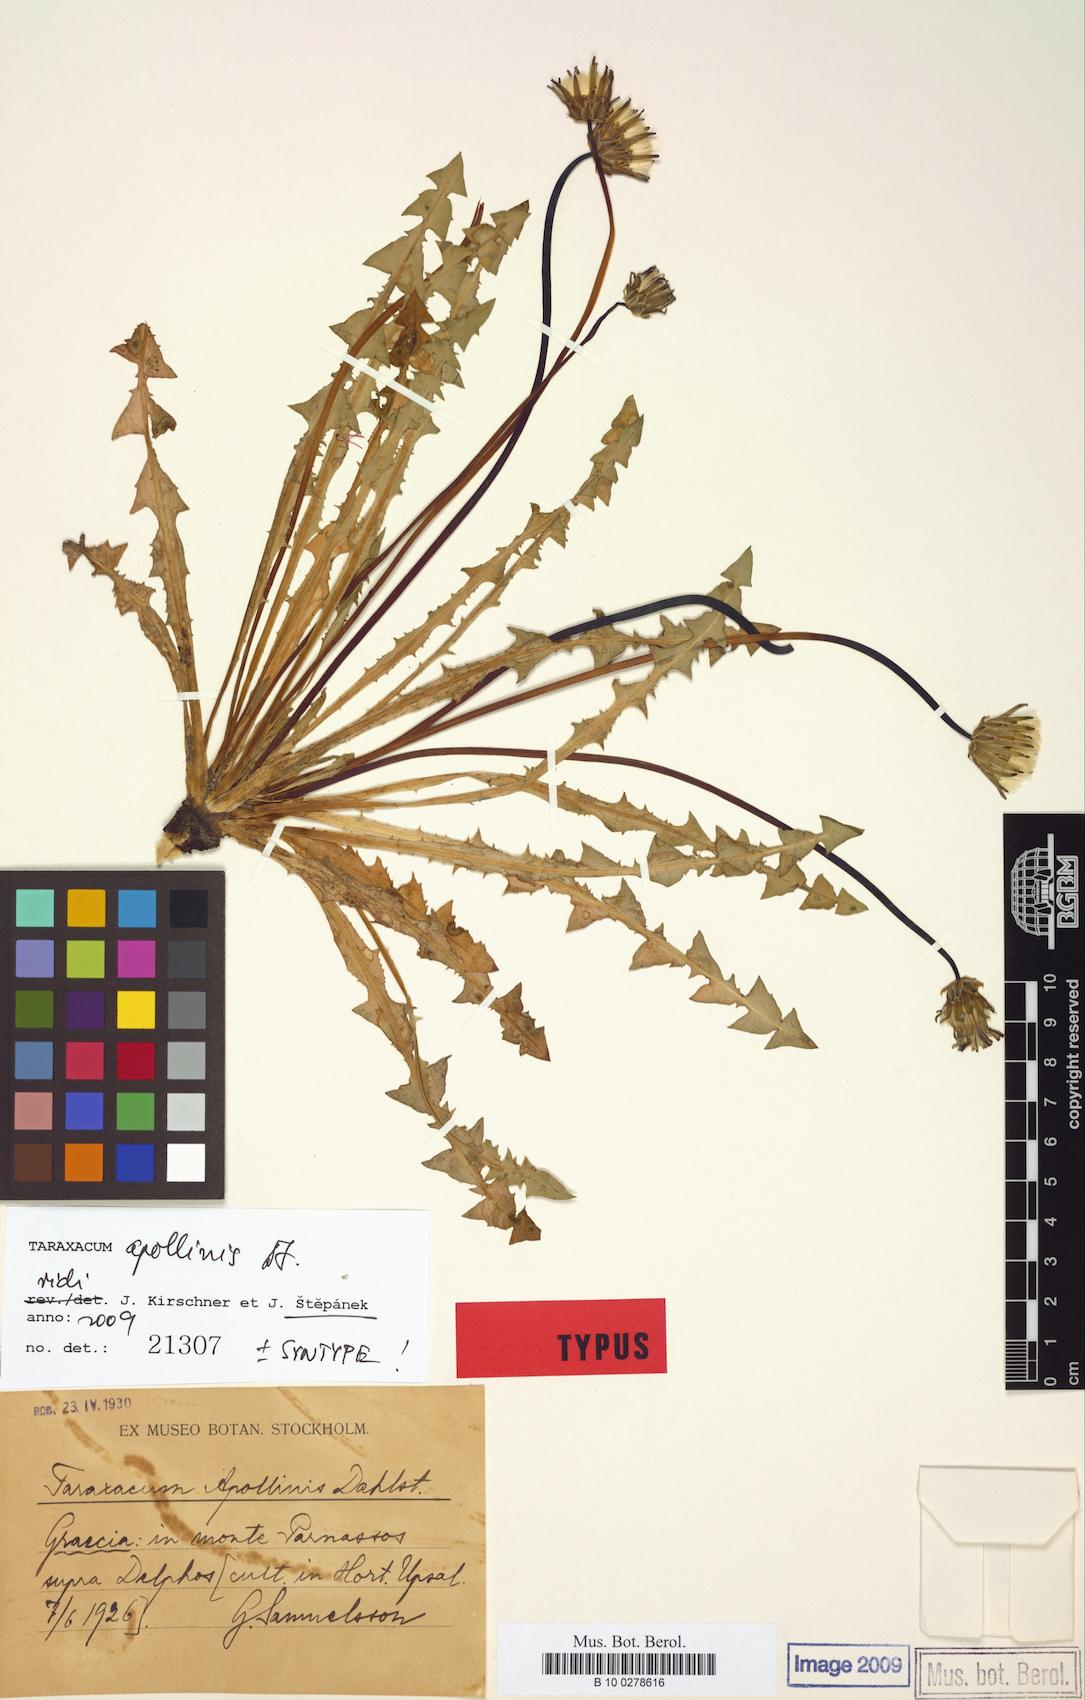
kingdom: Plantae
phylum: Tracheophyta
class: Magnoliopsida
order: Asterales
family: Asteraceae
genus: Taraxacum
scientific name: Taraxacum apollinis
